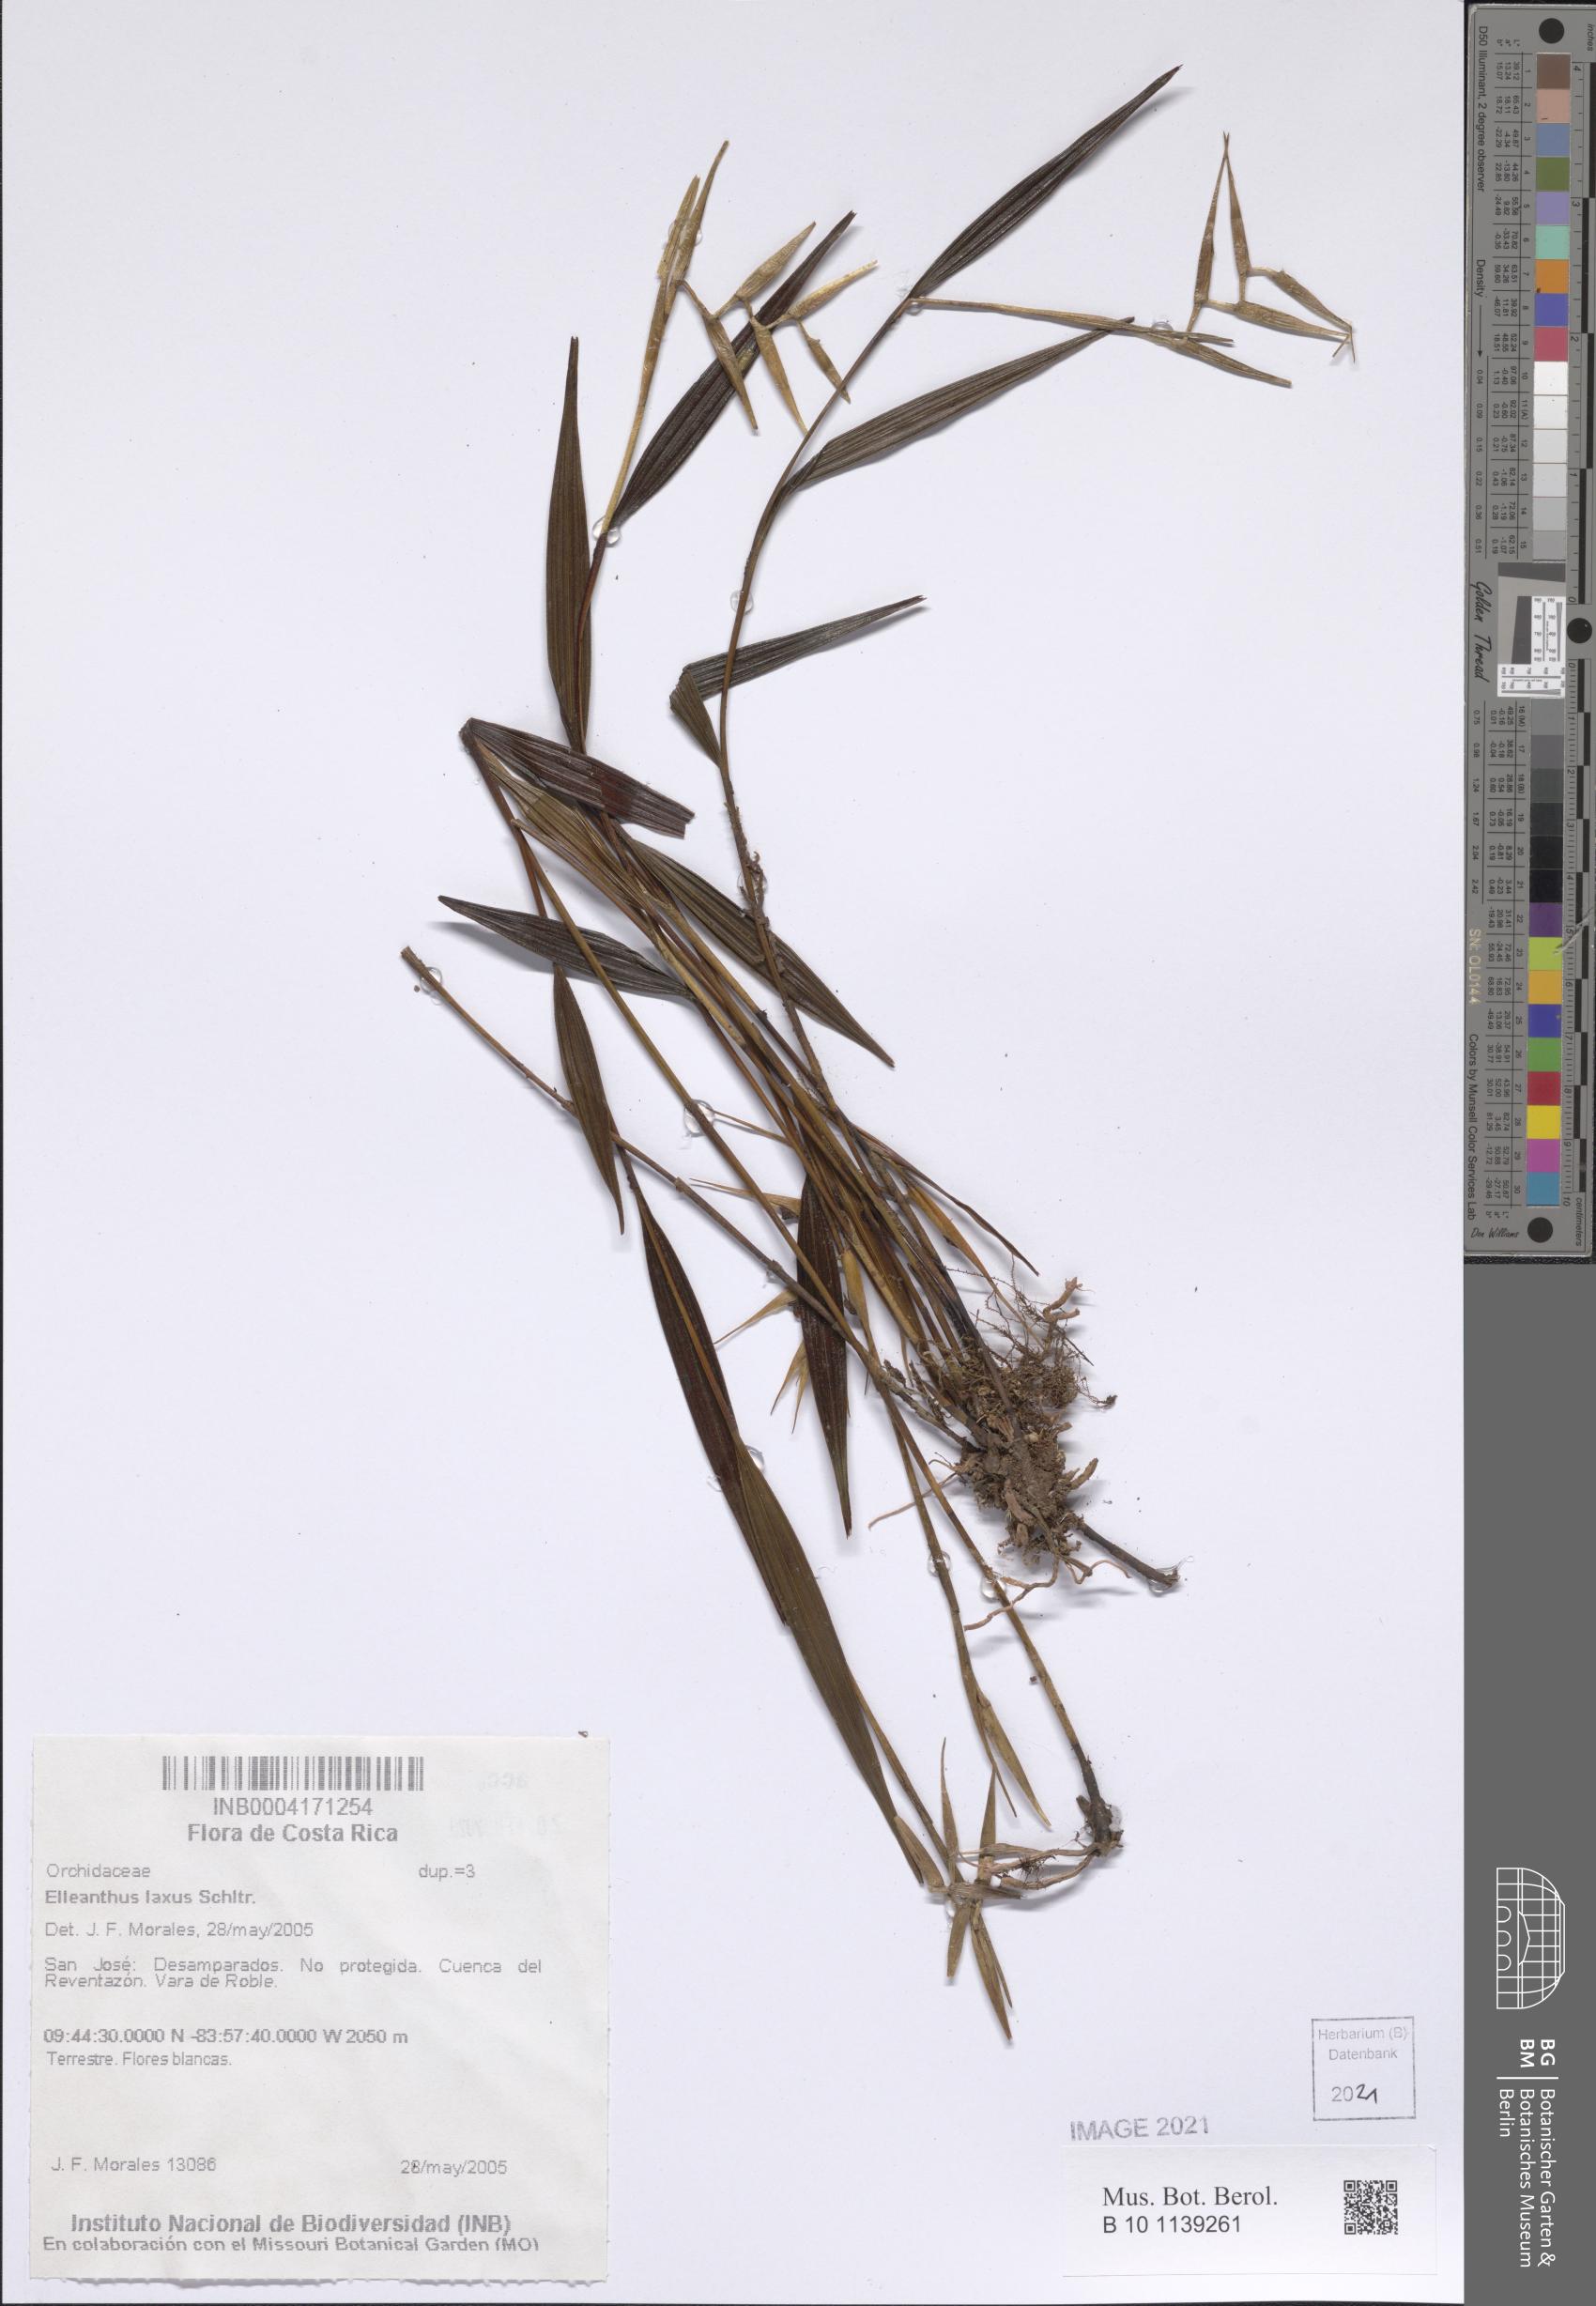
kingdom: Plantae
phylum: Tracheophyta
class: Liliopsida
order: Asparagales
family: Orchidaceae
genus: Elleanthus
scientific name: Elleanthus lancifolius
